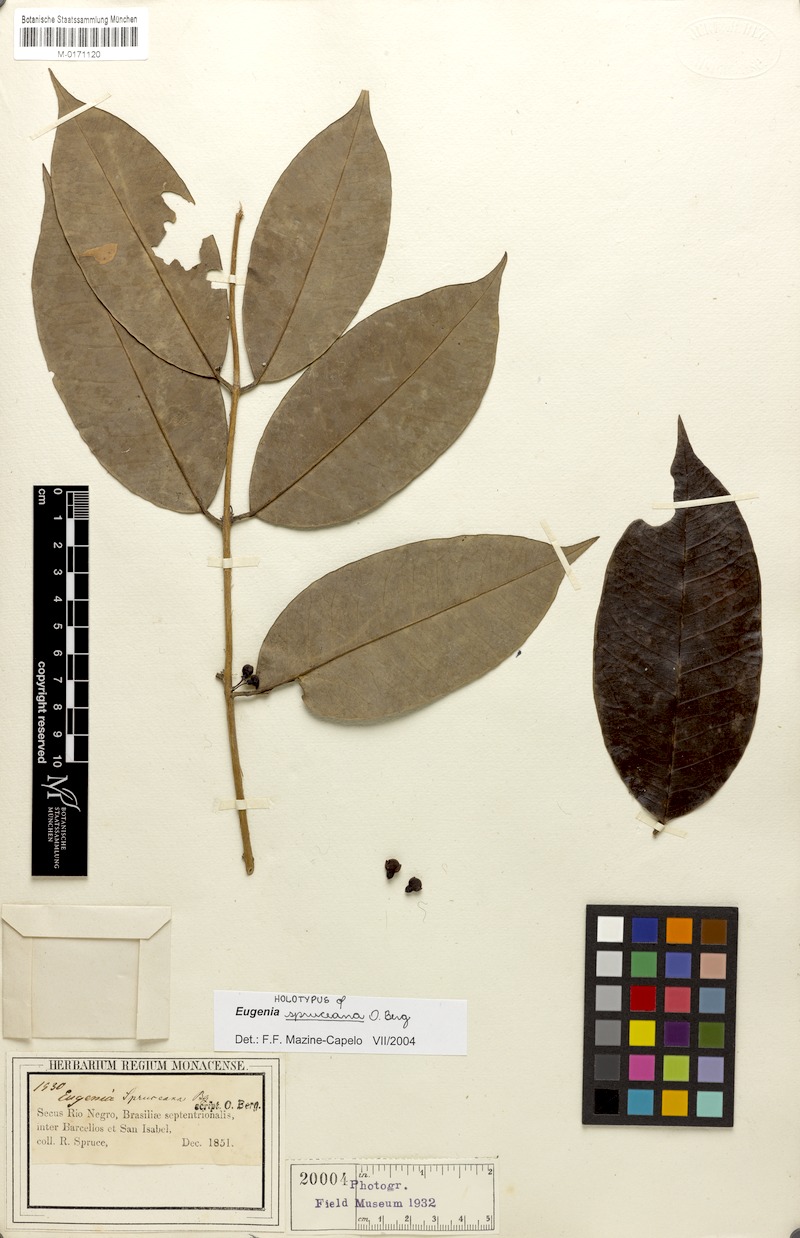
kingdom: Plantae
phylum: Tracheophyta
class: Magnoliopsida
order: Myrtales
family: Myrtaceae
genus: Eugenia
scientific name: Eugenia spruceana
